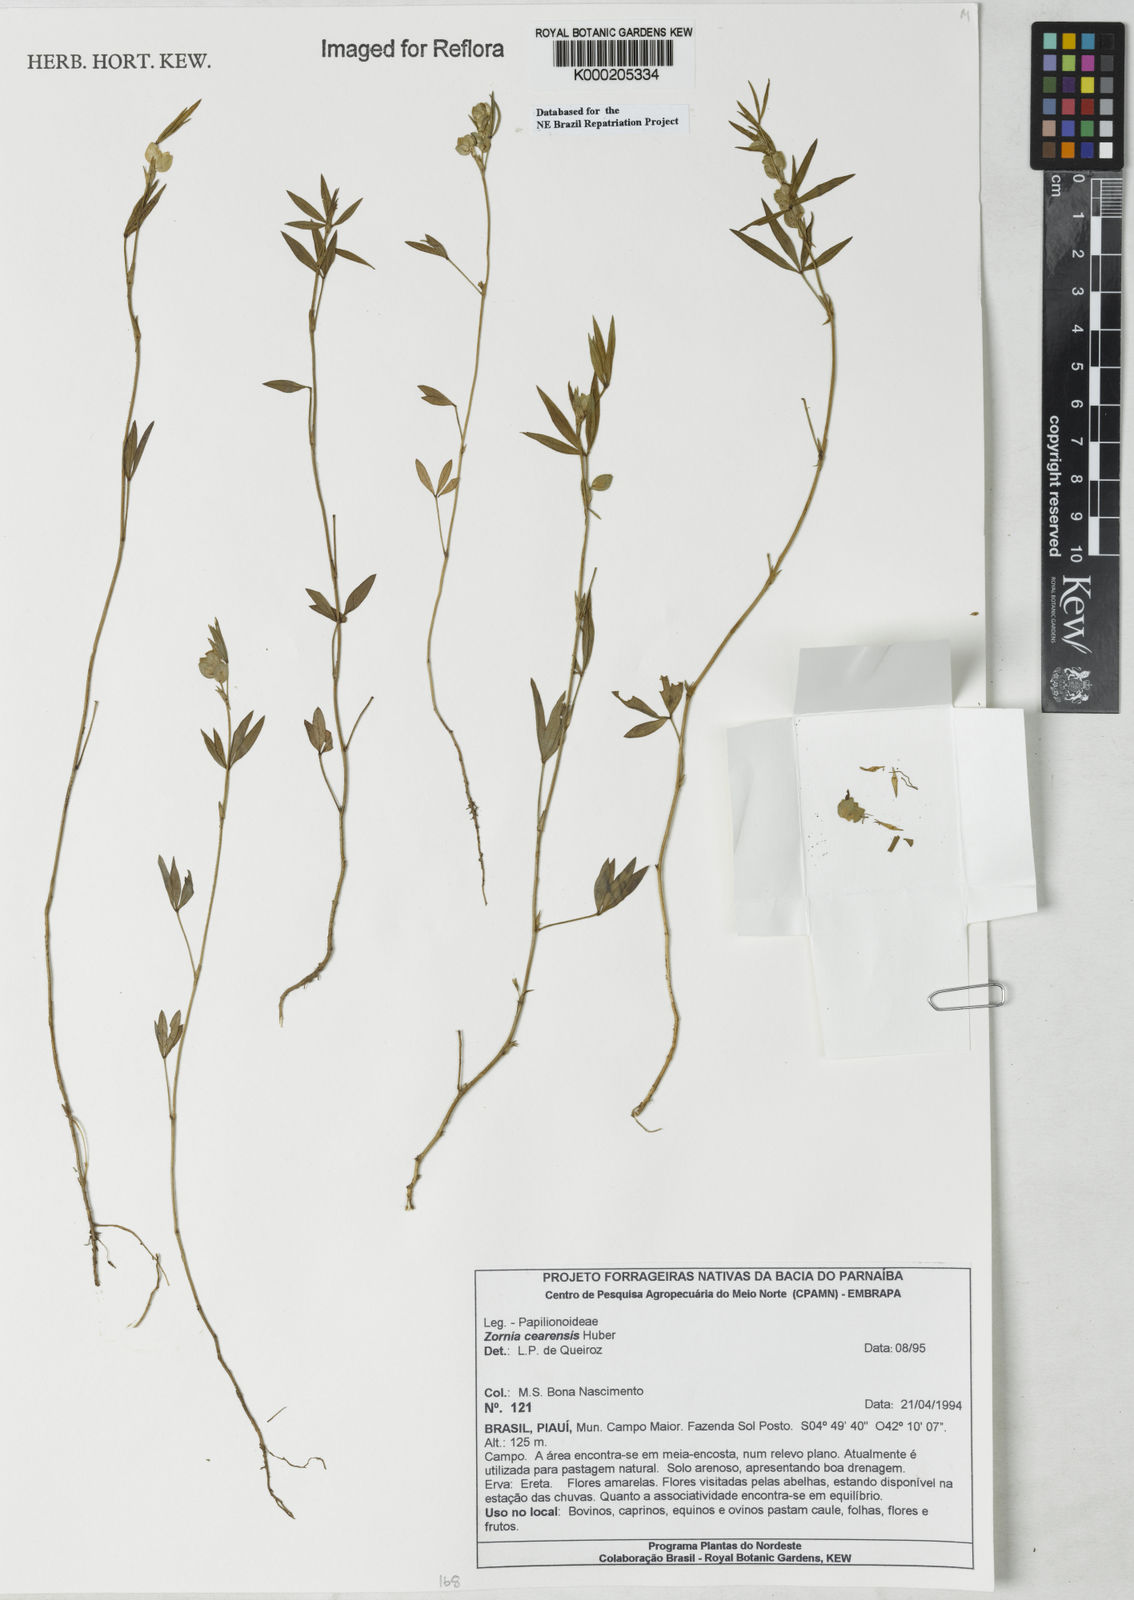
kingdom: Plantae
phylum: Tracheophyta
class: Magnoliopsida
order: Fabales
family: Fabaceae
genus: Zornia
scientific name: Zornia cearensis
